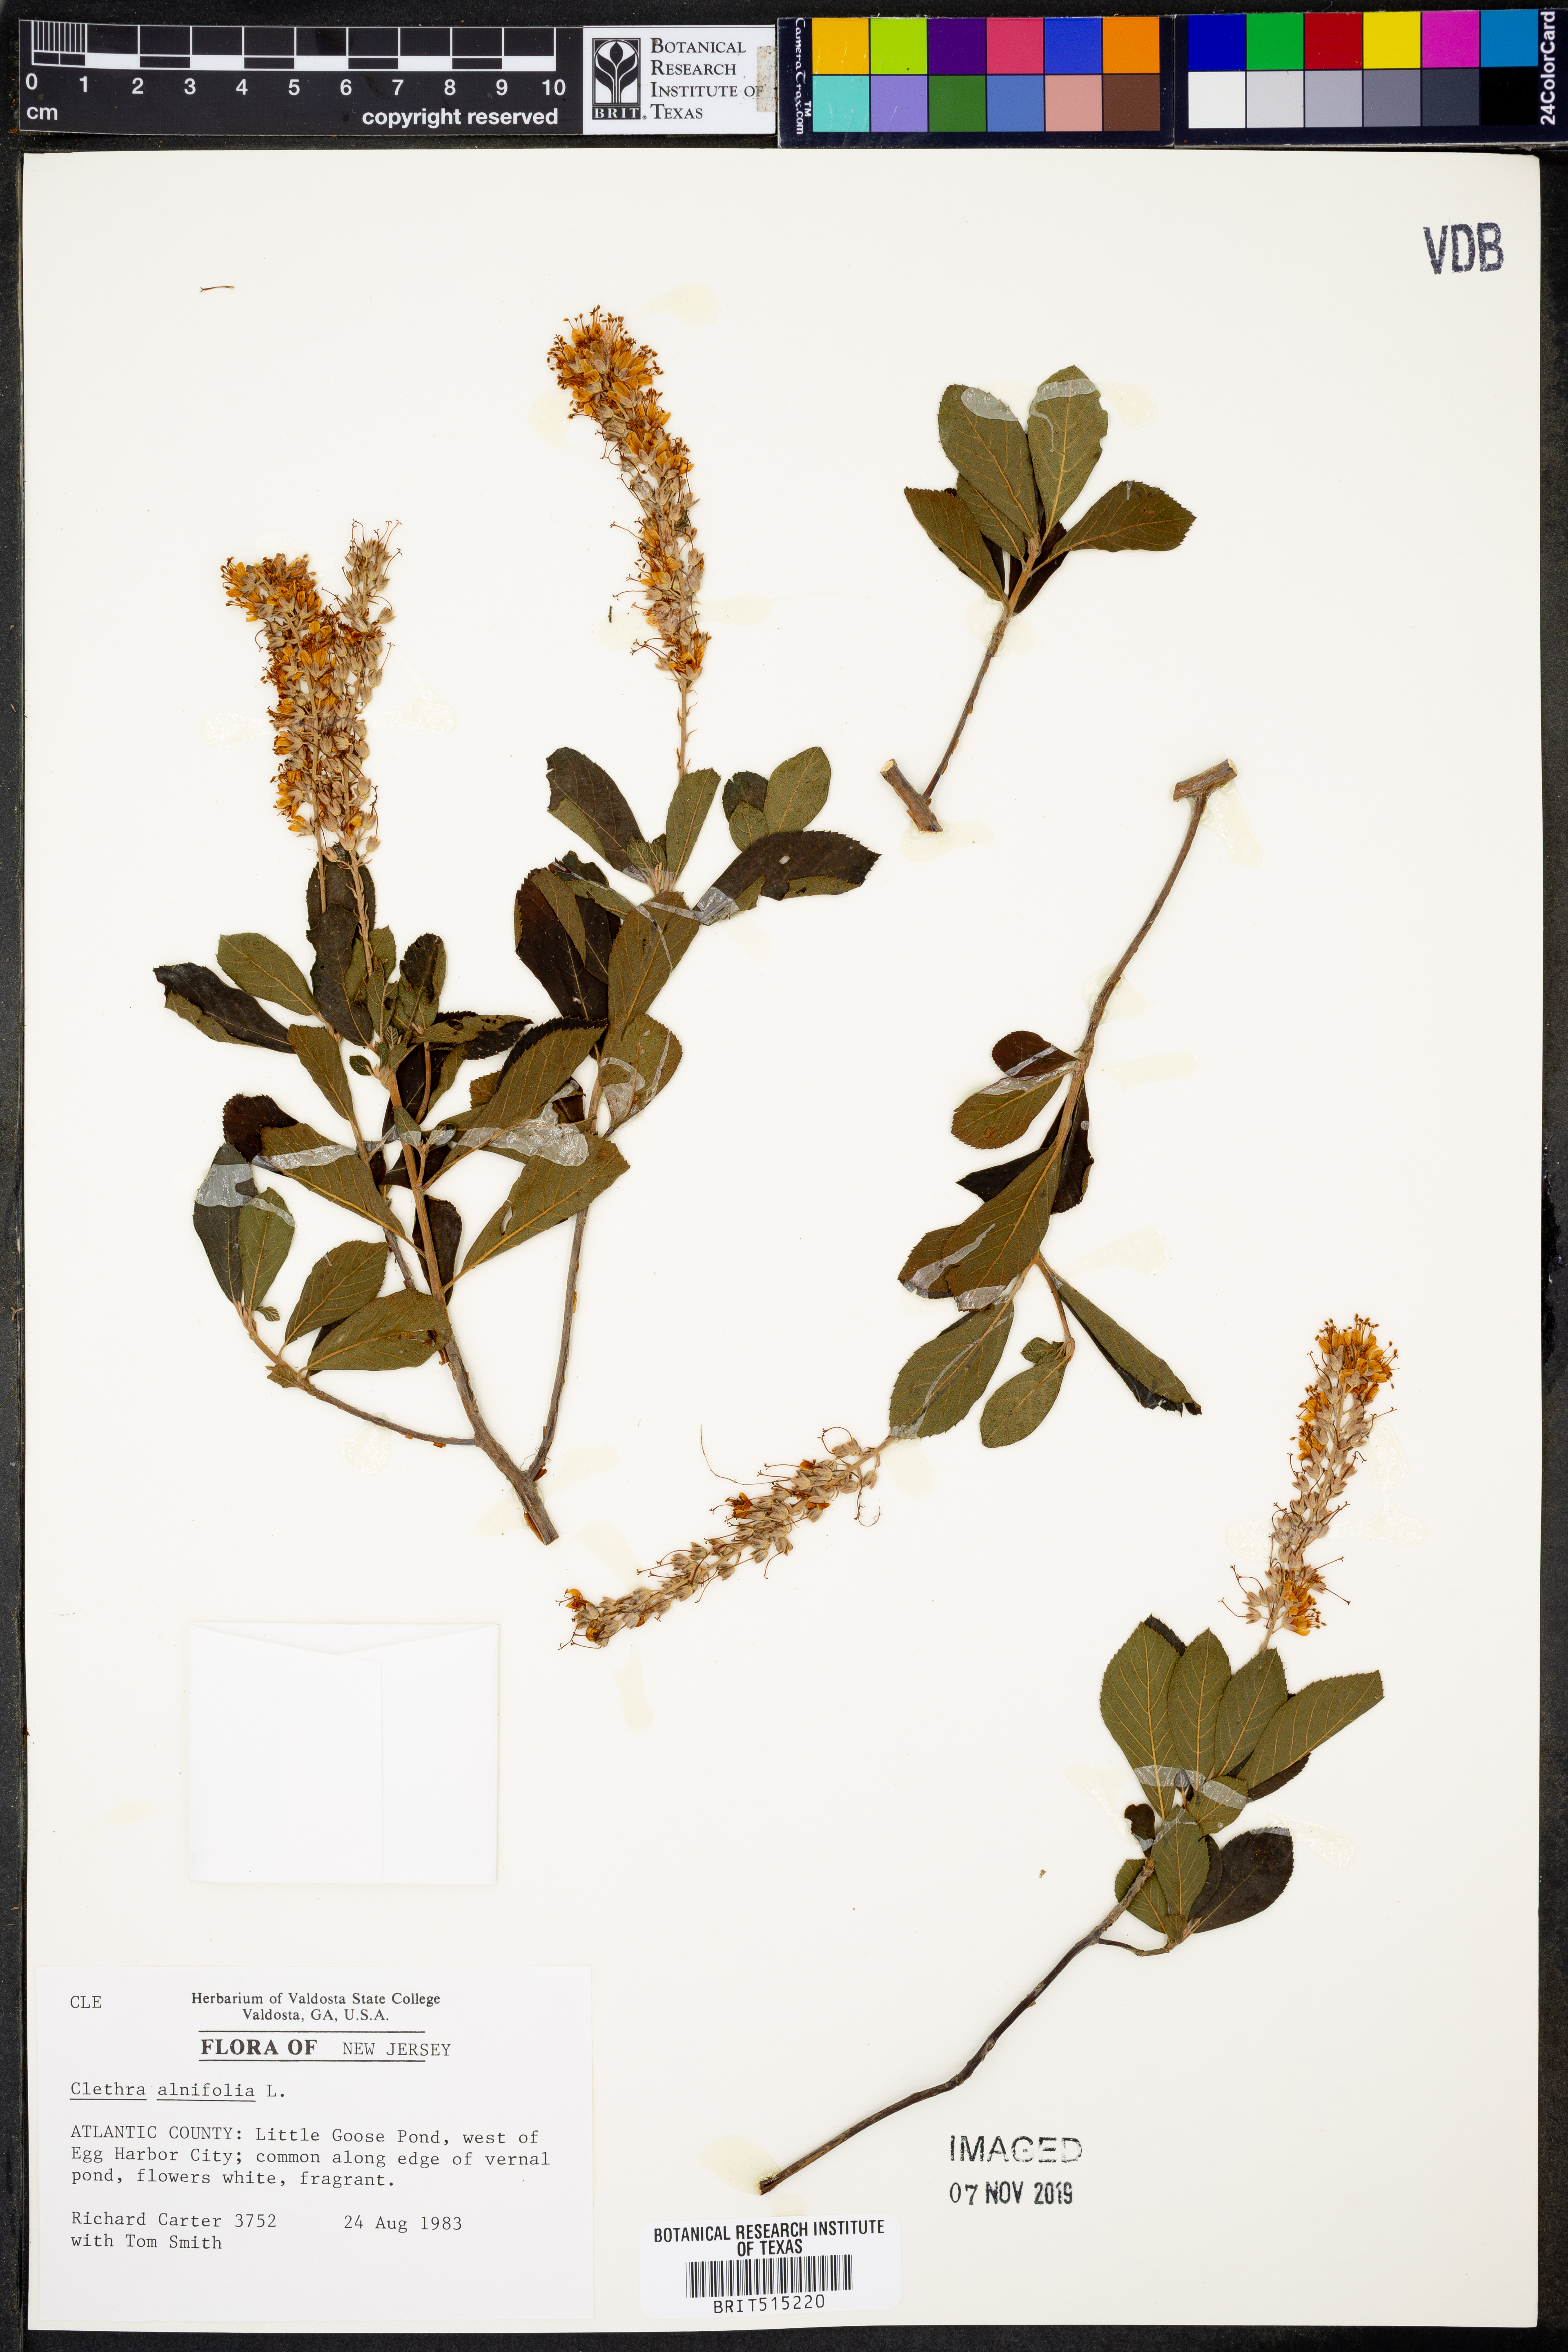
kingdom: Plantae
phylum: Tracheophyta
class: Magnoliopsida
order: Ericales
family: Clethraceae
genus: Clethra
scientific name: Clethra alnifolia
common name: Sweet pepperbush
